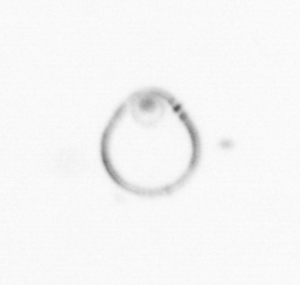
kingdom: Chromista
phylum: Myzozoa
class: Dinophyceae
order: Noctilucales
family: Noctilucaceae
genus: Noctiluca
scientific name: Noctiluca scintillans
